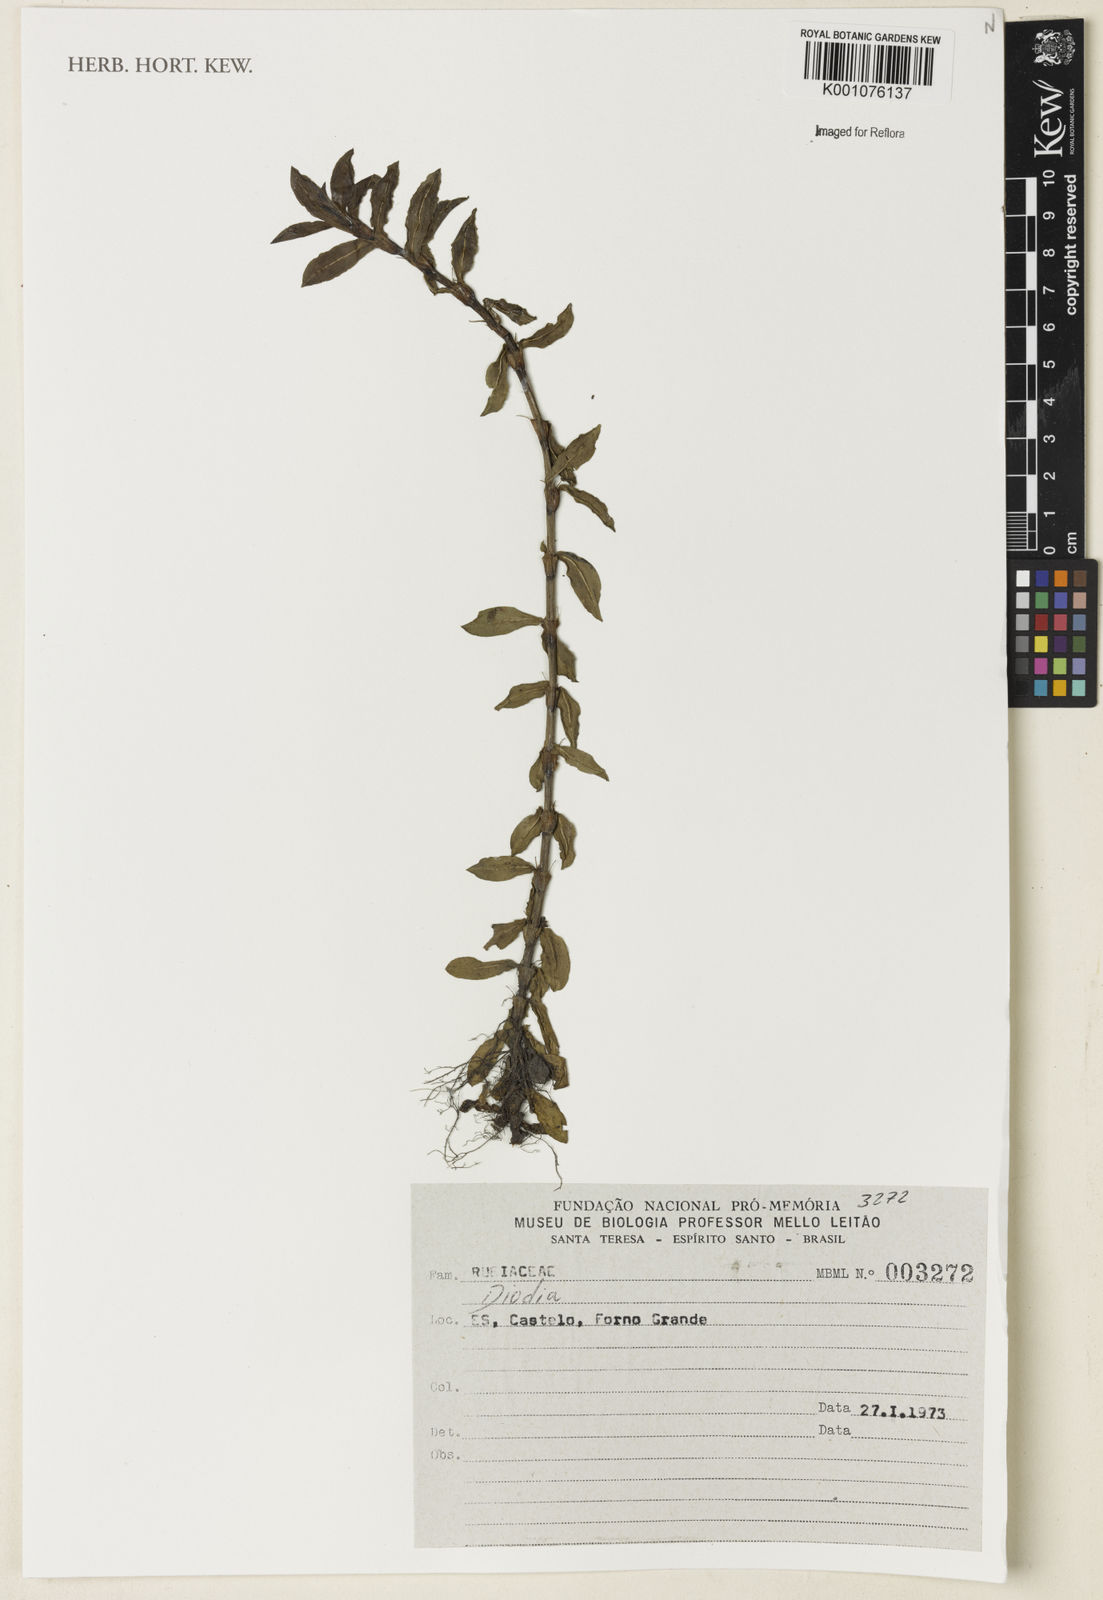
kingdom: Plantae
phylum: Tracheophyta
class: Magnoliopsida
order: Gentianales
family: Rubiaceae
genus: Hexasepalum
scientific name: Hexasepalum
